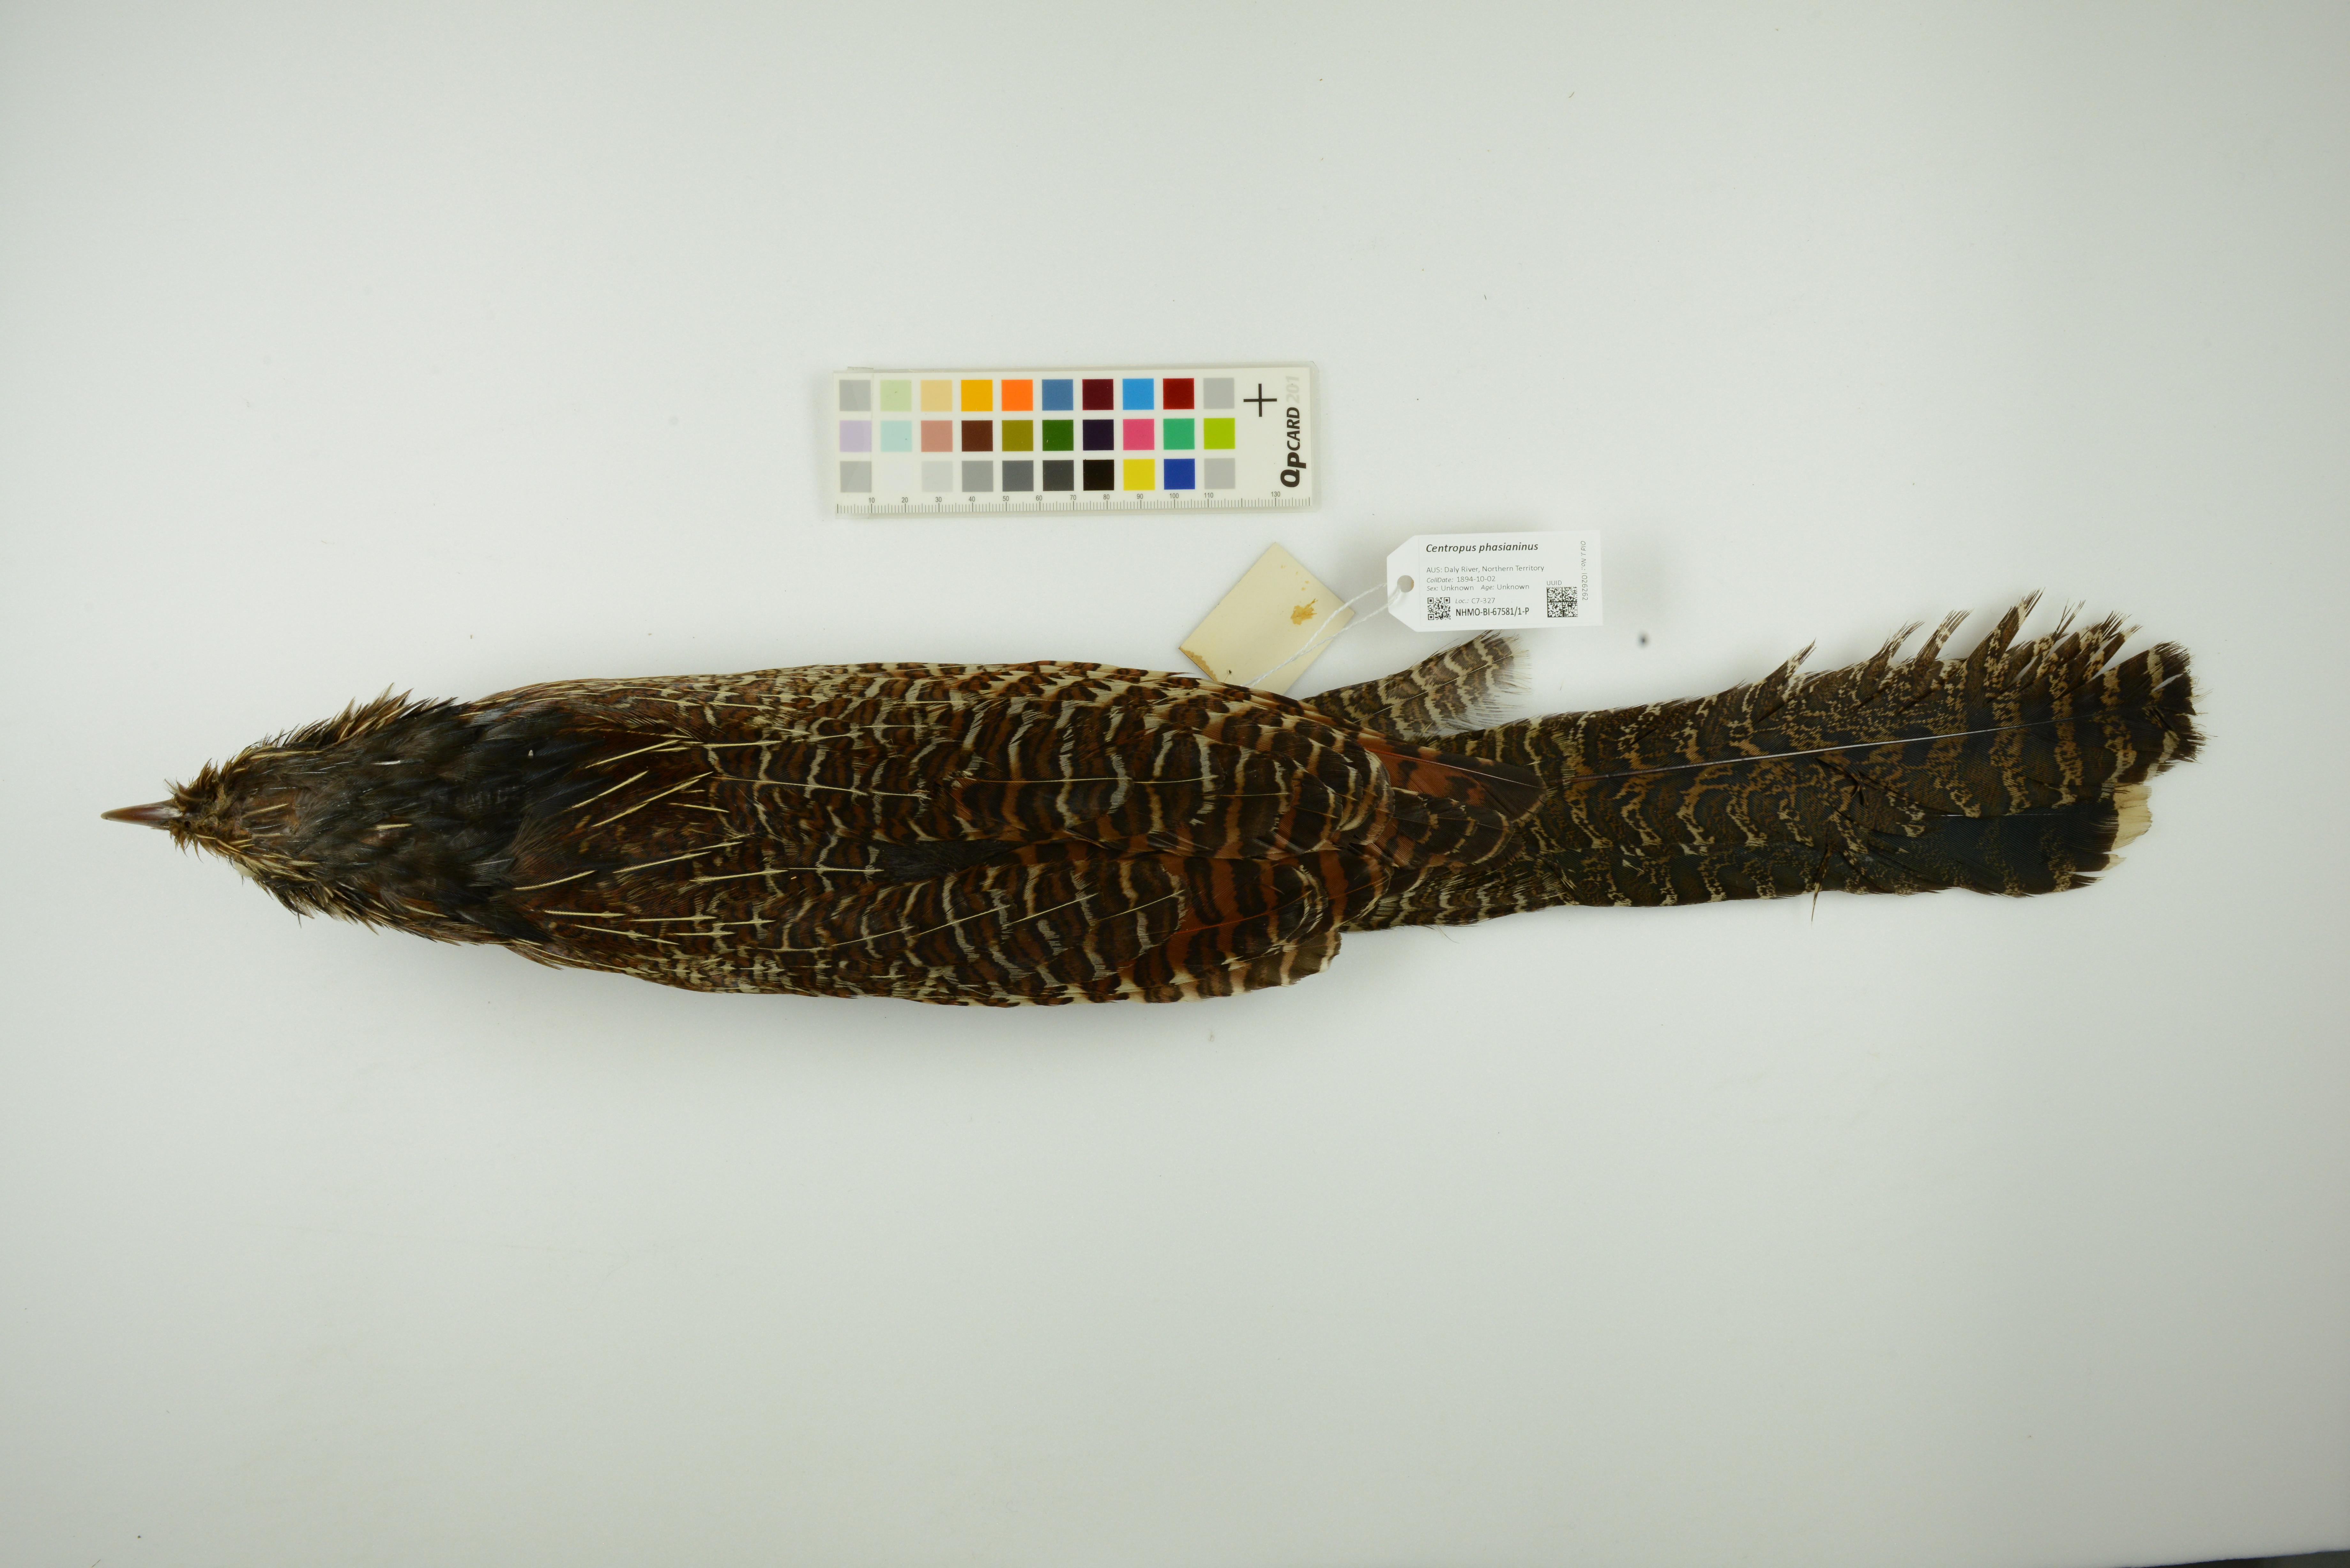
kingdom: Animalia
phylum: Chordata
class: Aves
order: Cuculiformes
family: Cuculidae
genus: Centropus
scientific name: Centropus phasianinus
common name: Pheasant coucal
